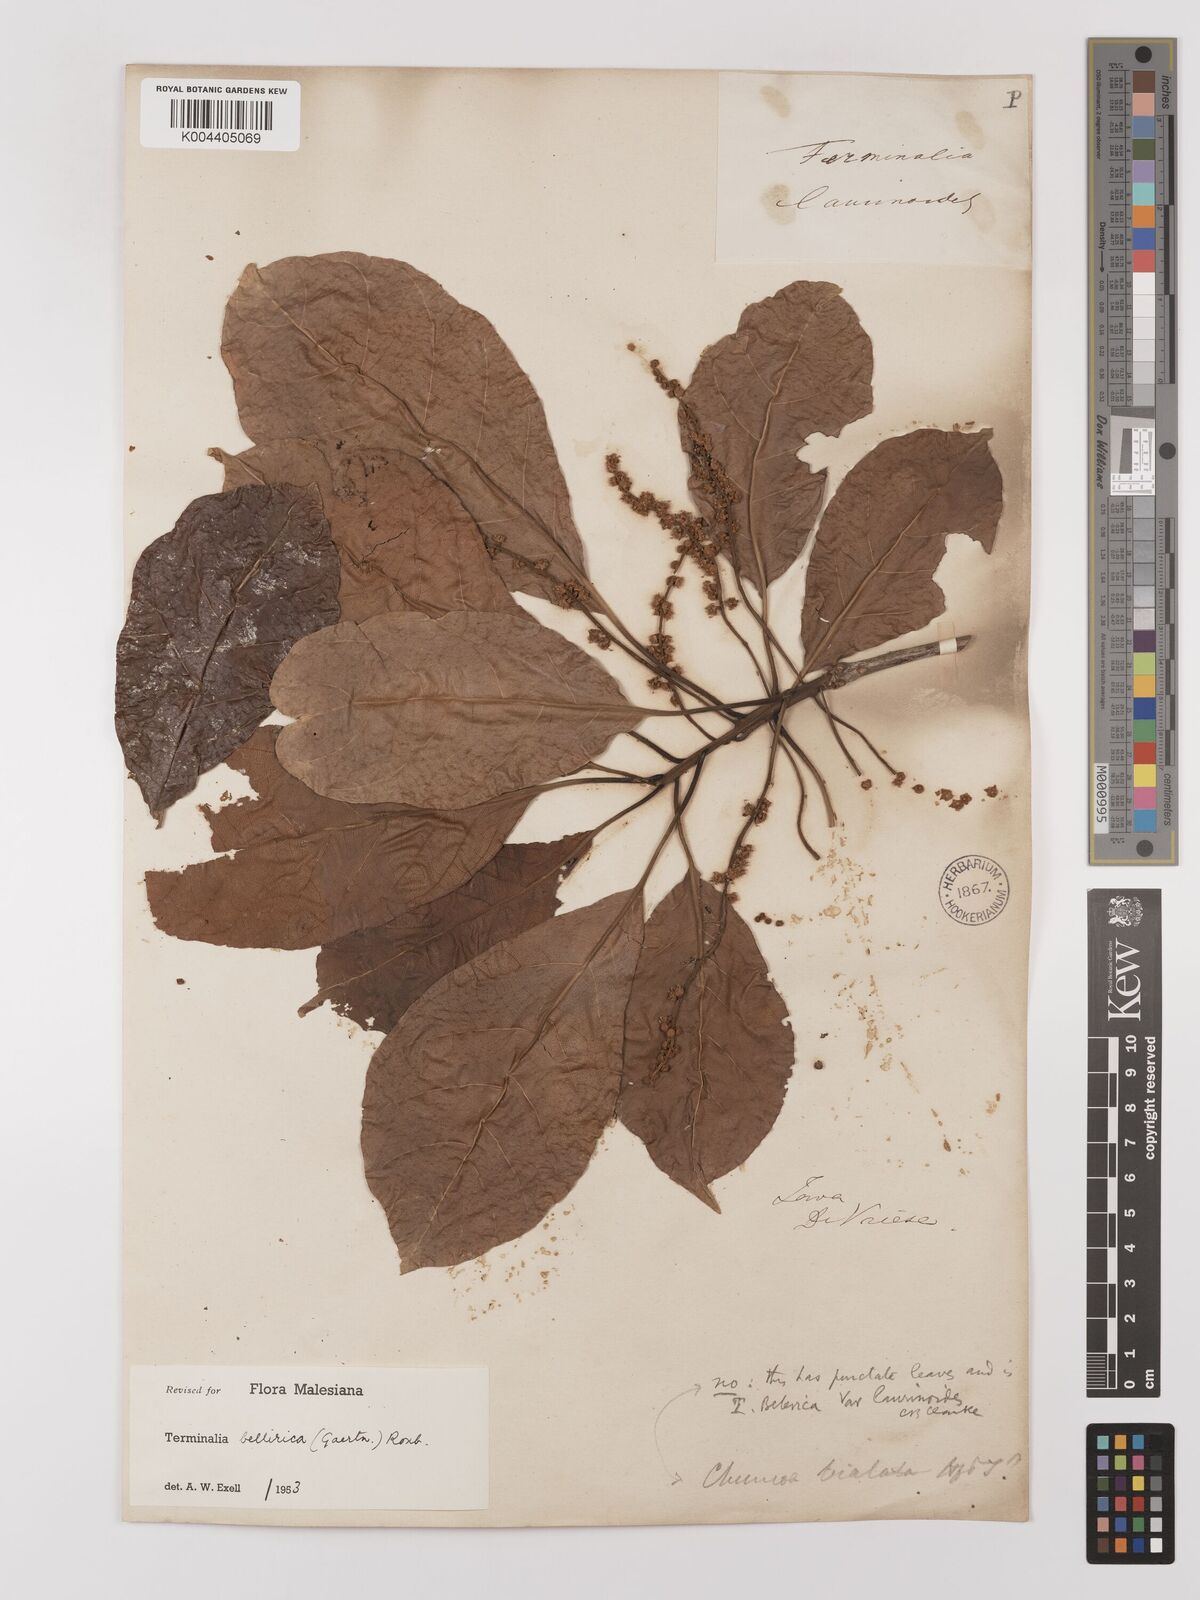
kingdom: Plantae
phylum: Tracheophyta
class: Magnoliopsida
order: Myrtales
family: Combretaceae
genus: Terminalia
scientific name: Terminalia bellirica
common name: Beleric myrobalan
